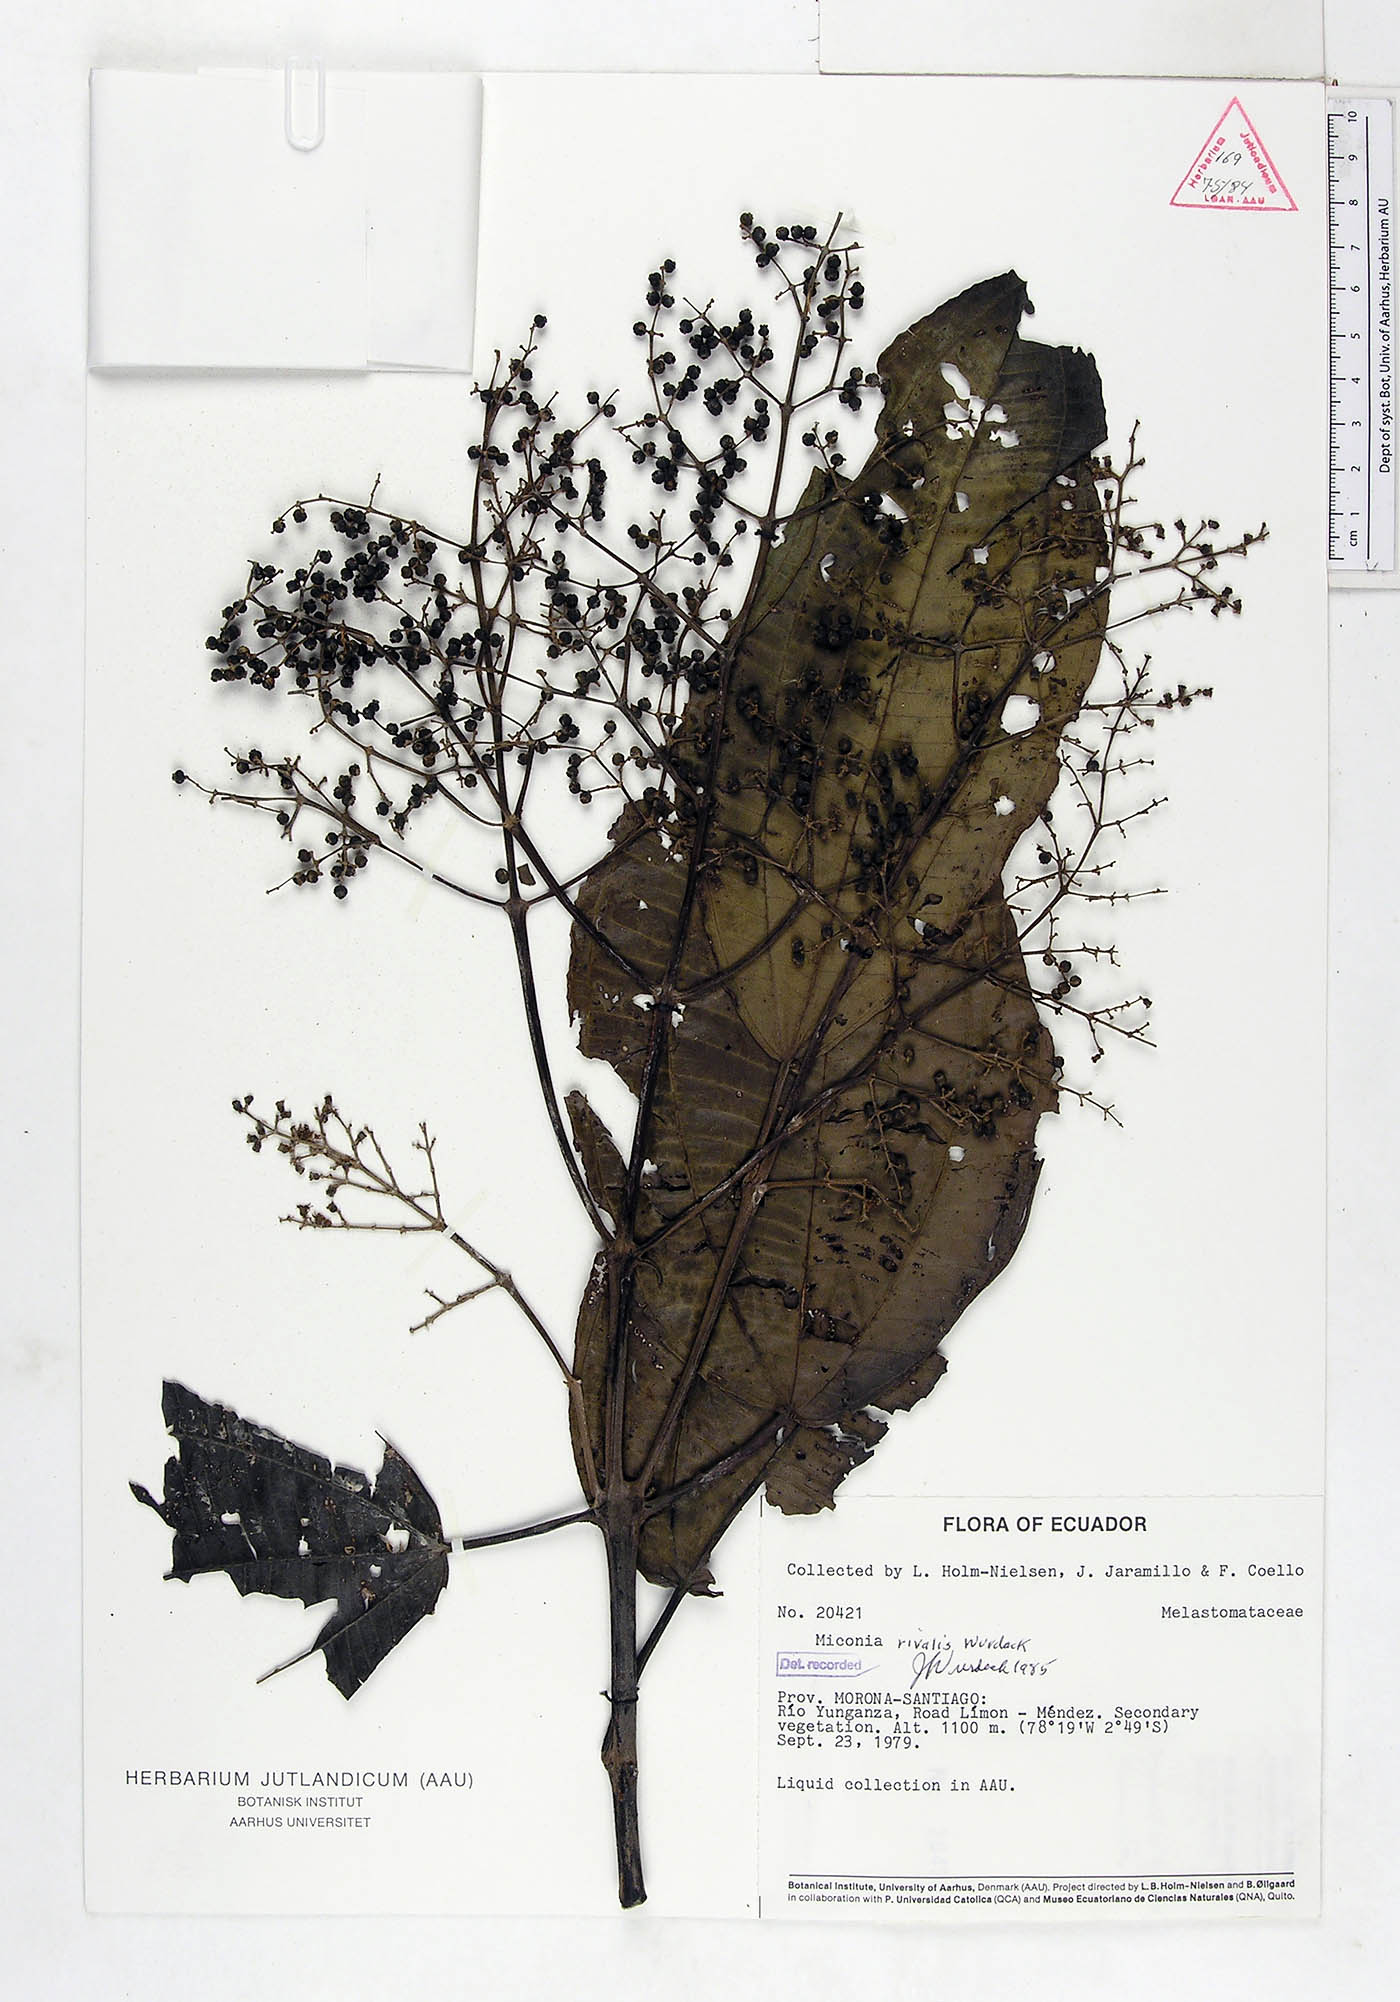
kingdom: Plantae
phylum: Tracheophyta
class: Magnoliopsida
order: Myrtales
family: Melastomataceae
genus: Miconia
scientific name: Miconia rivalis
